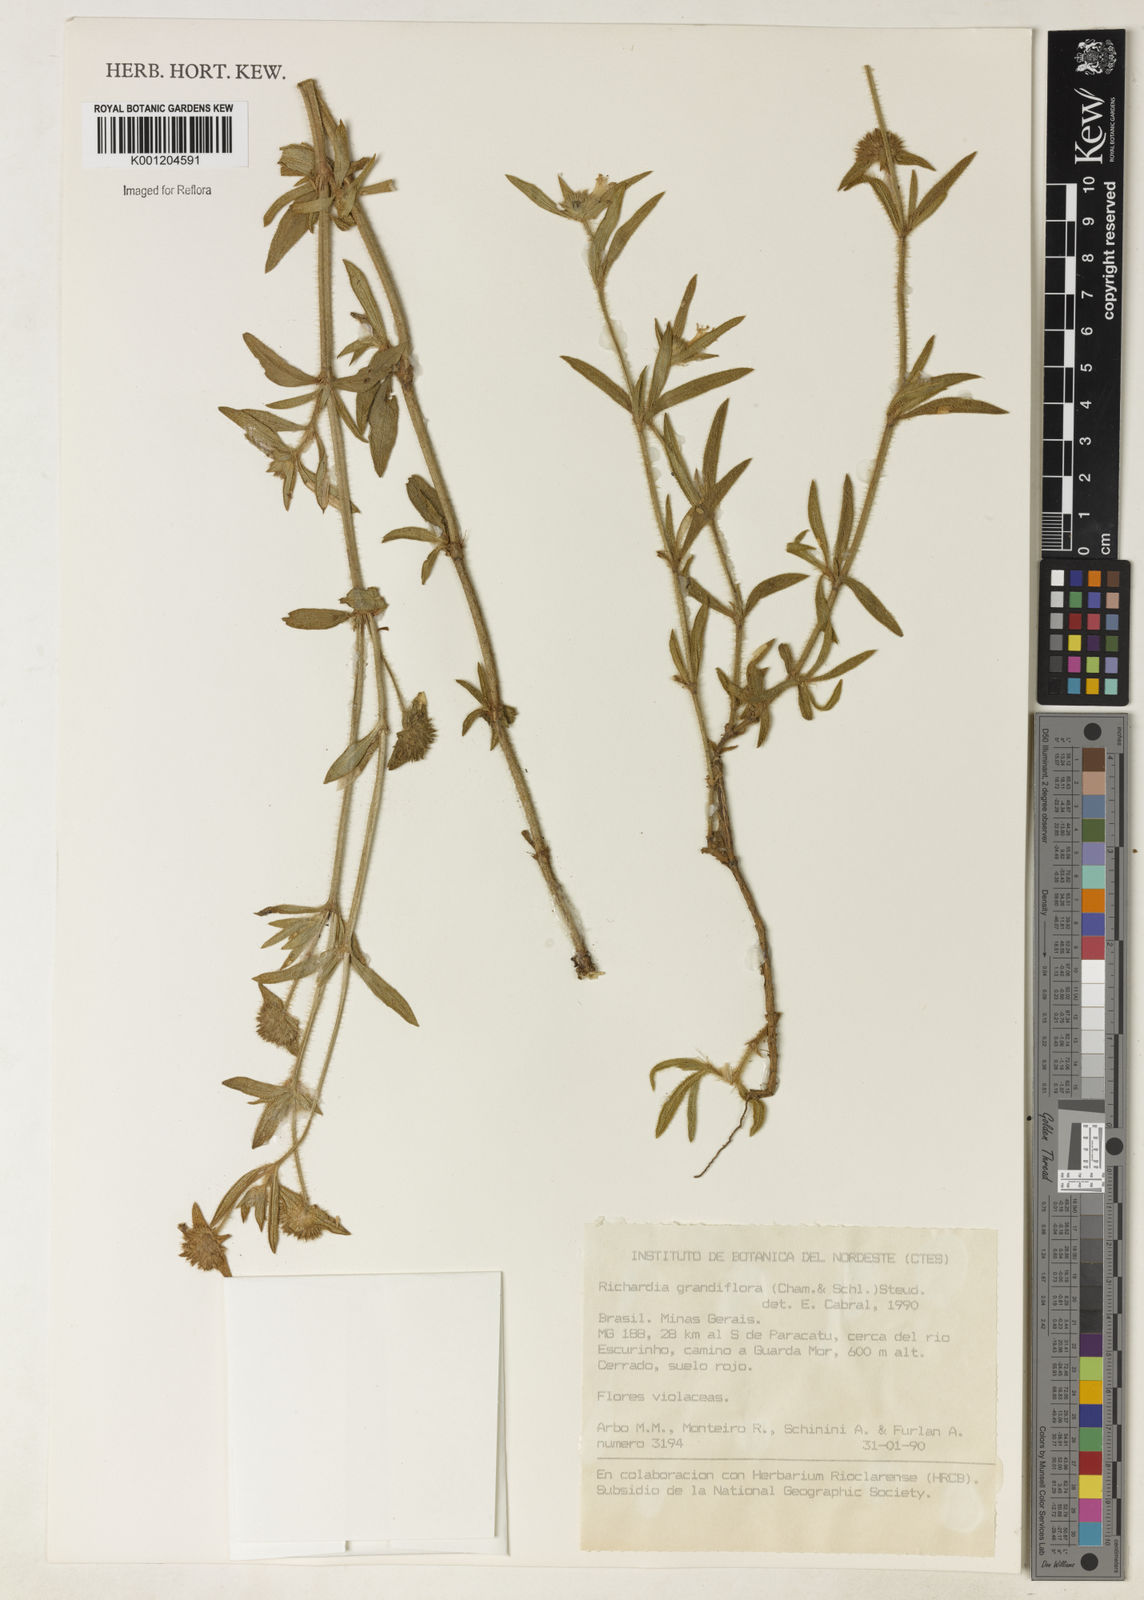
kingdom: Plantae
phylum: Tracheophyta
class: Magnoliopsida
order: Gentianales
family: Rubiaceae
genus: Richardia
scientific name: Richardia grandiflora
